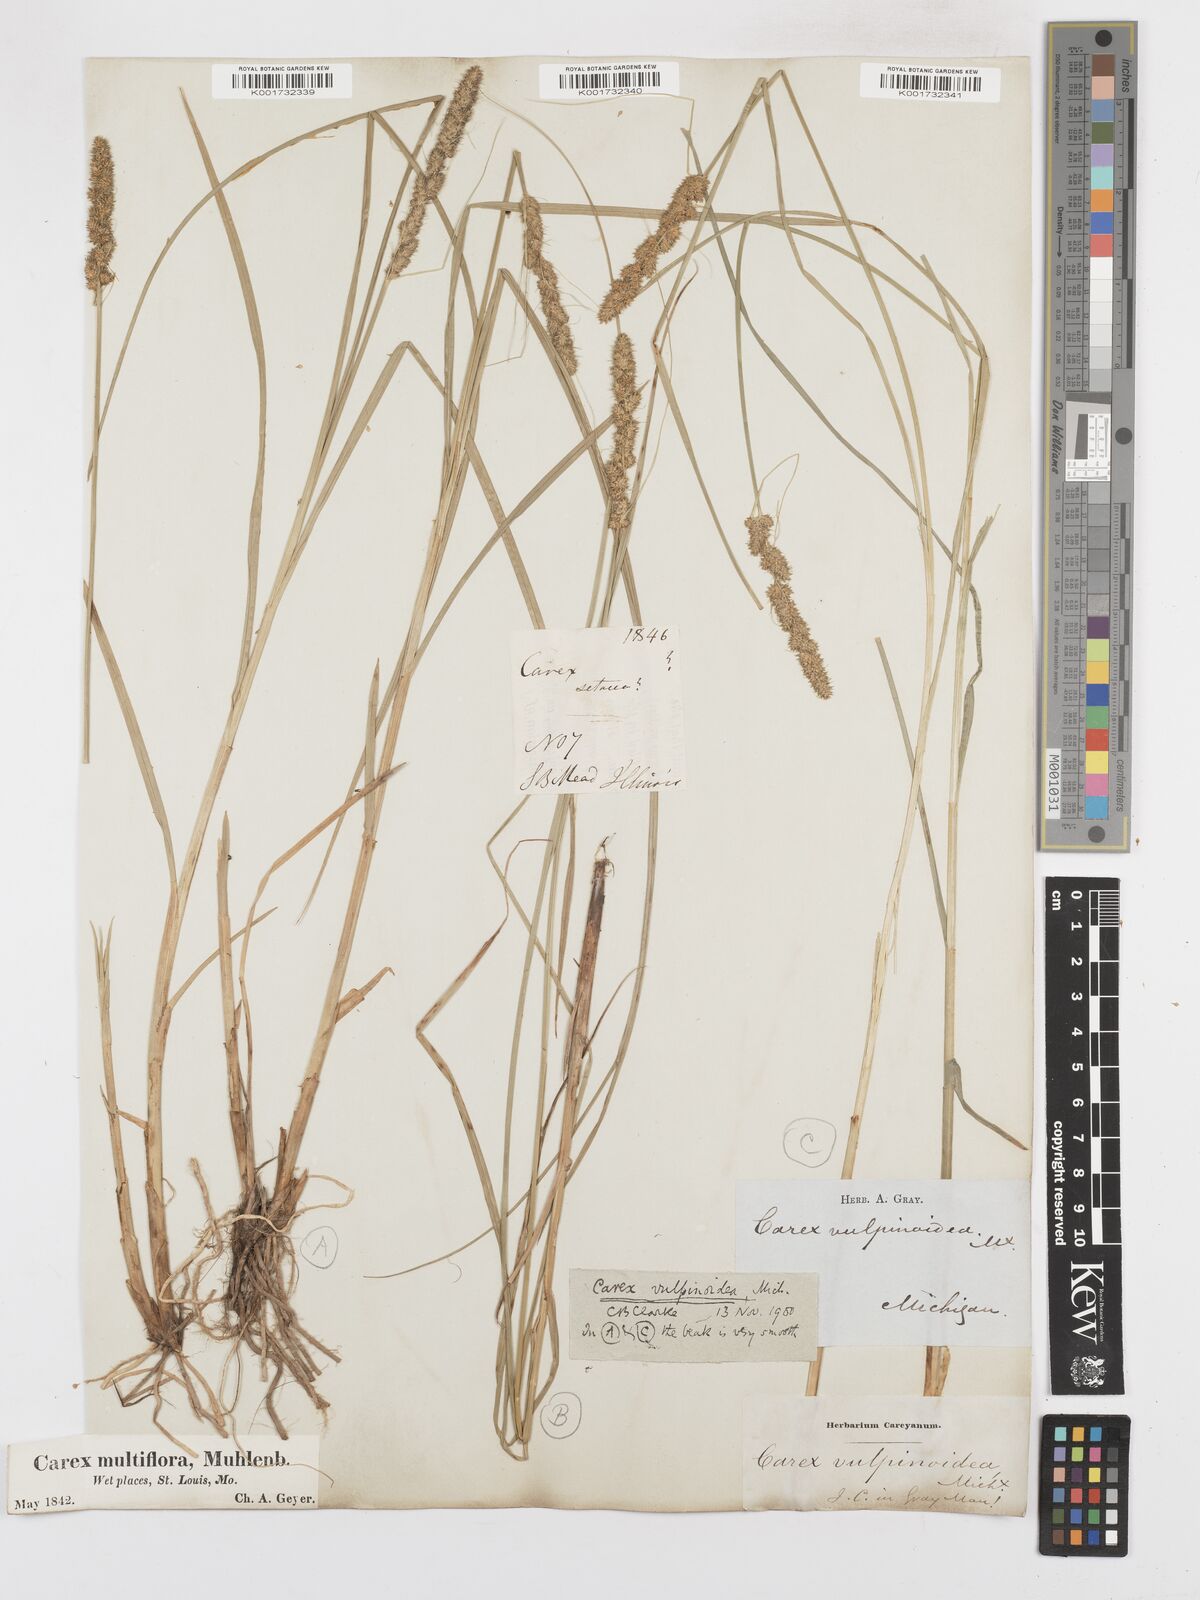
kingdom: Plantae
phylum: Tracheophyta
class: Liliopsida
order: Poales
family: Cyperaceae
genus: Carex
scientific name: Carex vulpinoidea
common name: American fox-sedge
